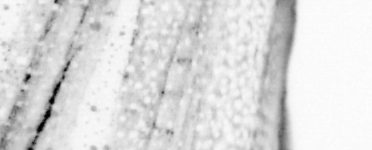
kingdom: Animalia
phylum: Chordata
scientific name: Chordata
